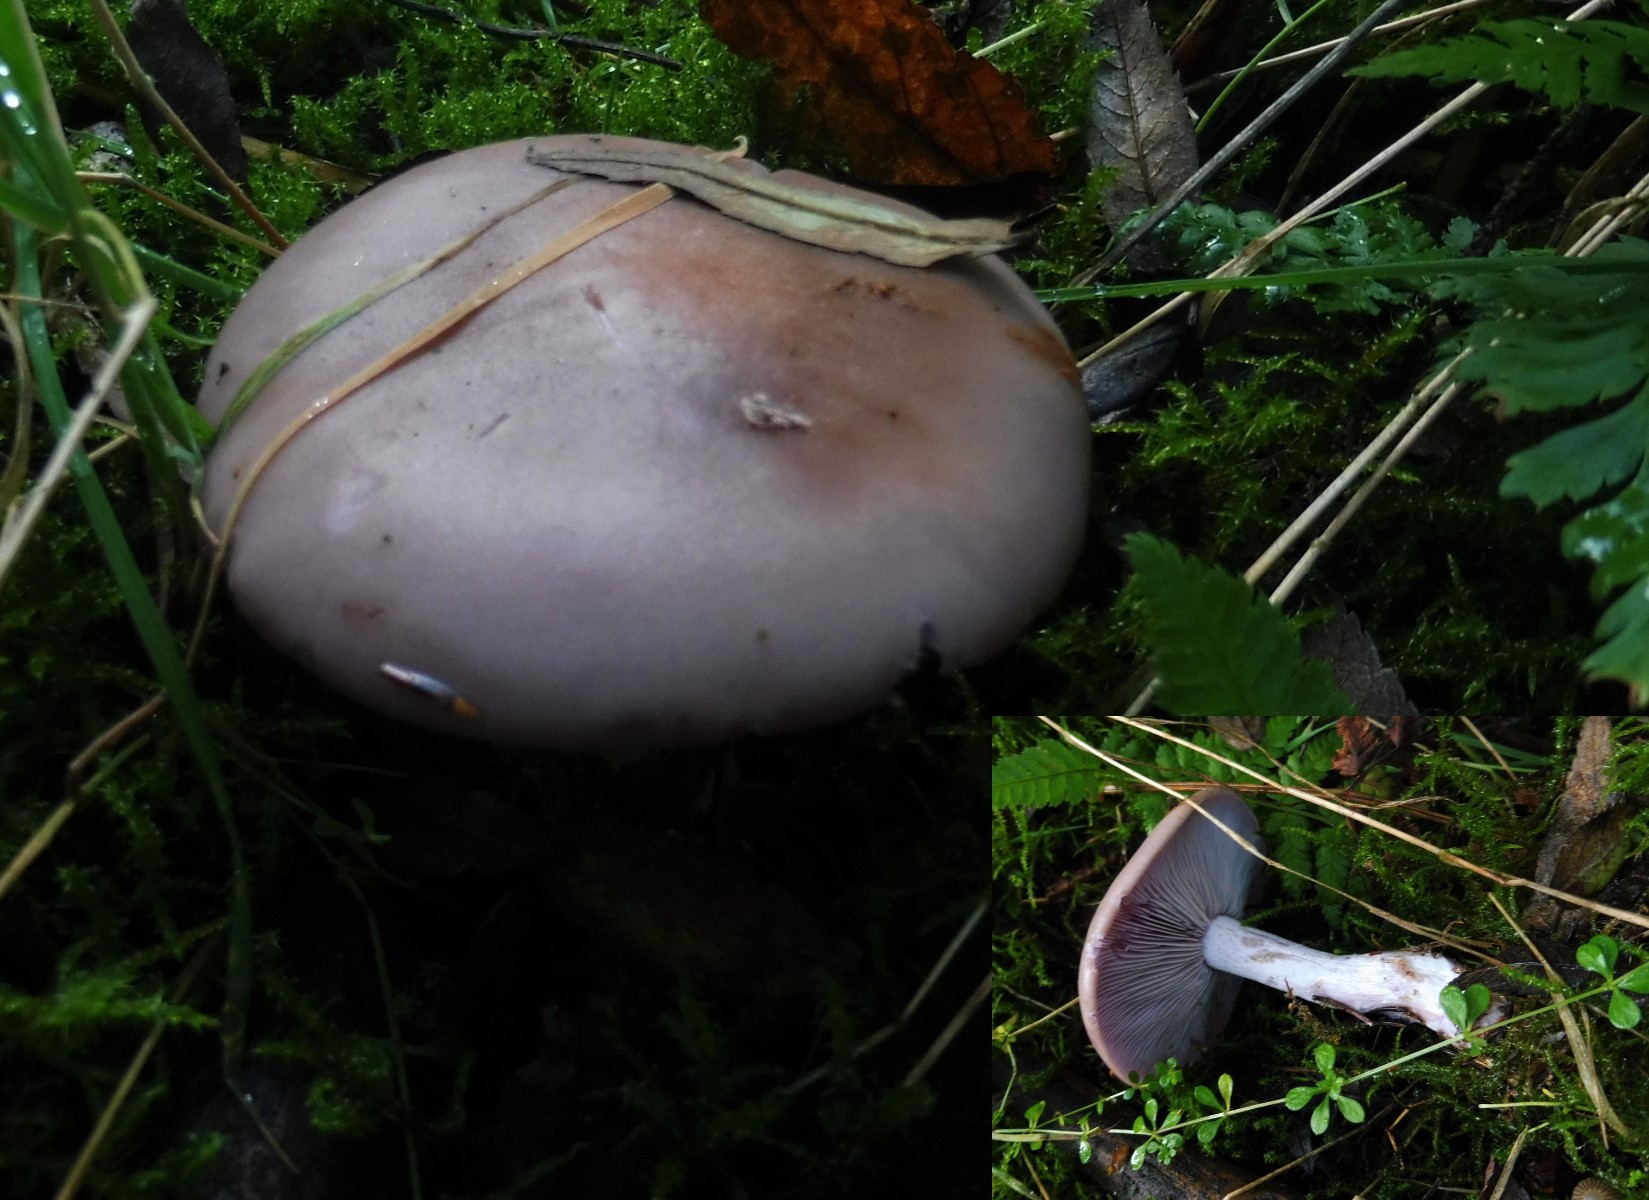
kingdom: Fungi
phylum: Basidiomycota
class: Agaricomycetes
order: Agaricales
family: Tricholomataceae
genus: Lepista
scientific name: Lepista nuda
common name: violet hekseringshat
